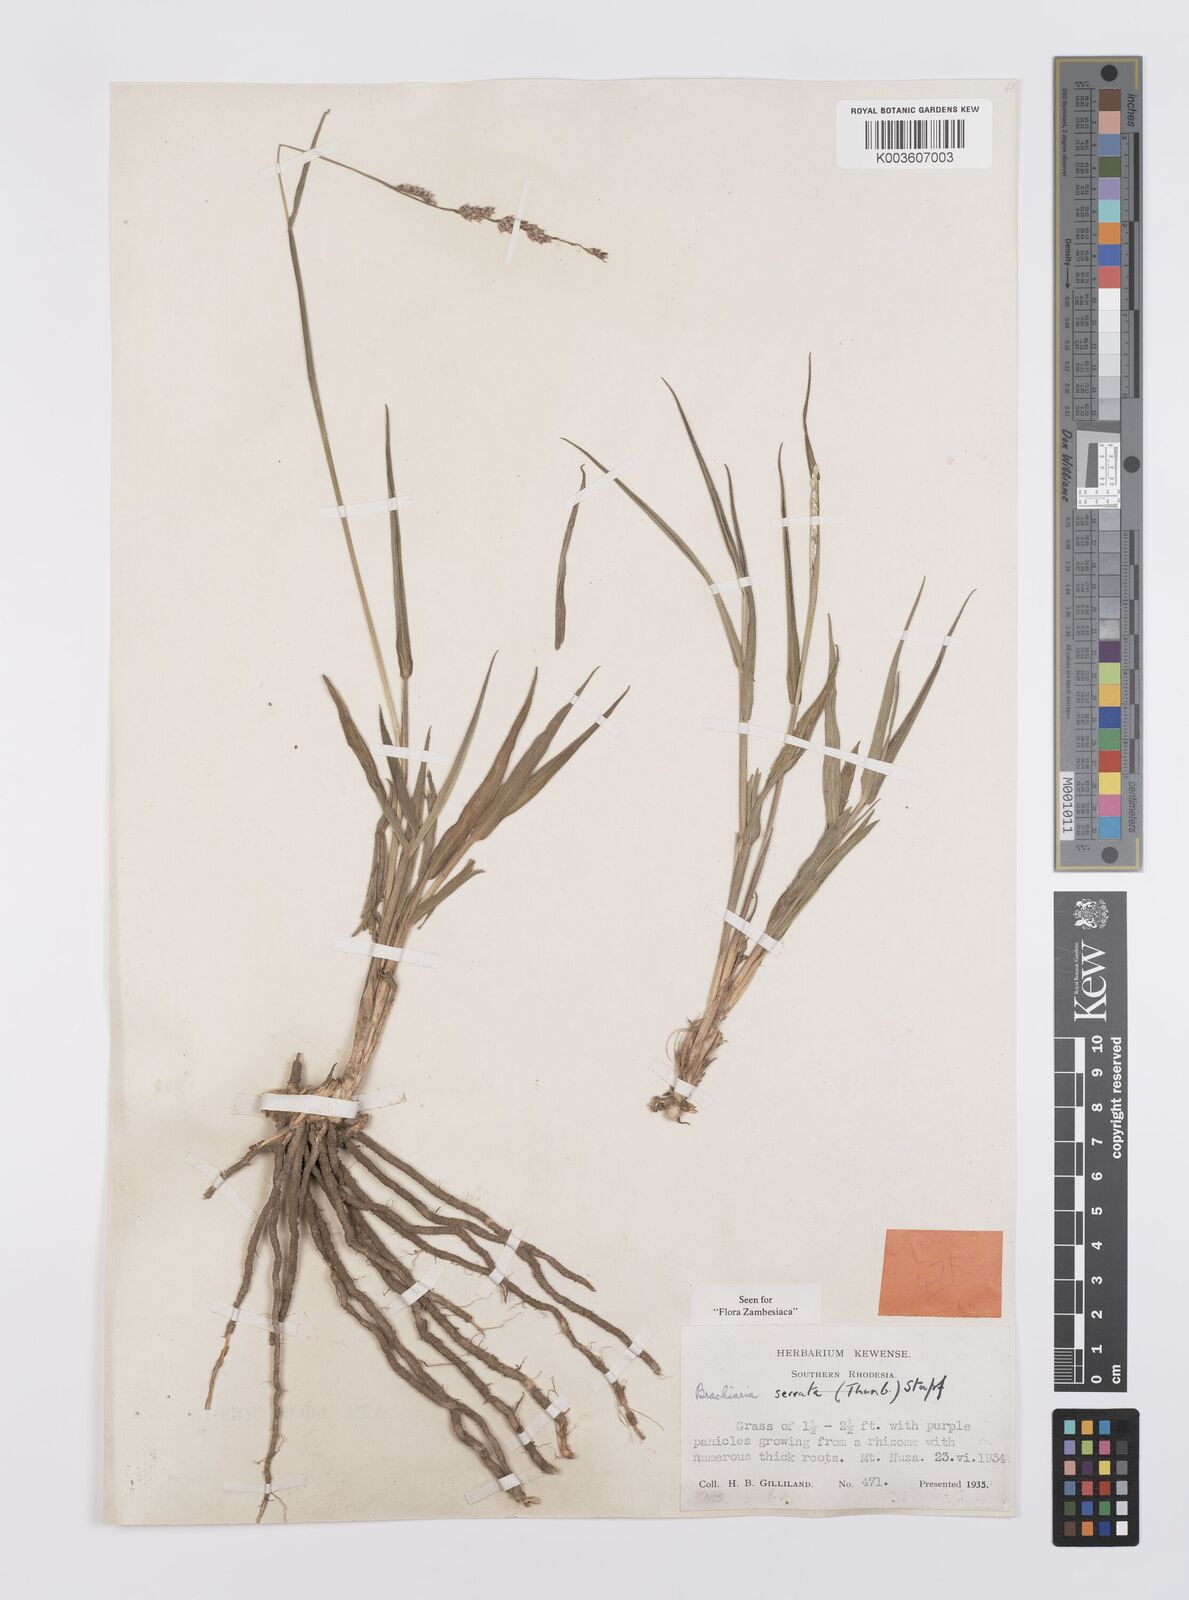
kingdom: Plantae
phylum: Tracheophyta
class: Liliopsida
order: Poales
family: Poaceae
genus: Urochloa
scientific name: Urochloa serrata
